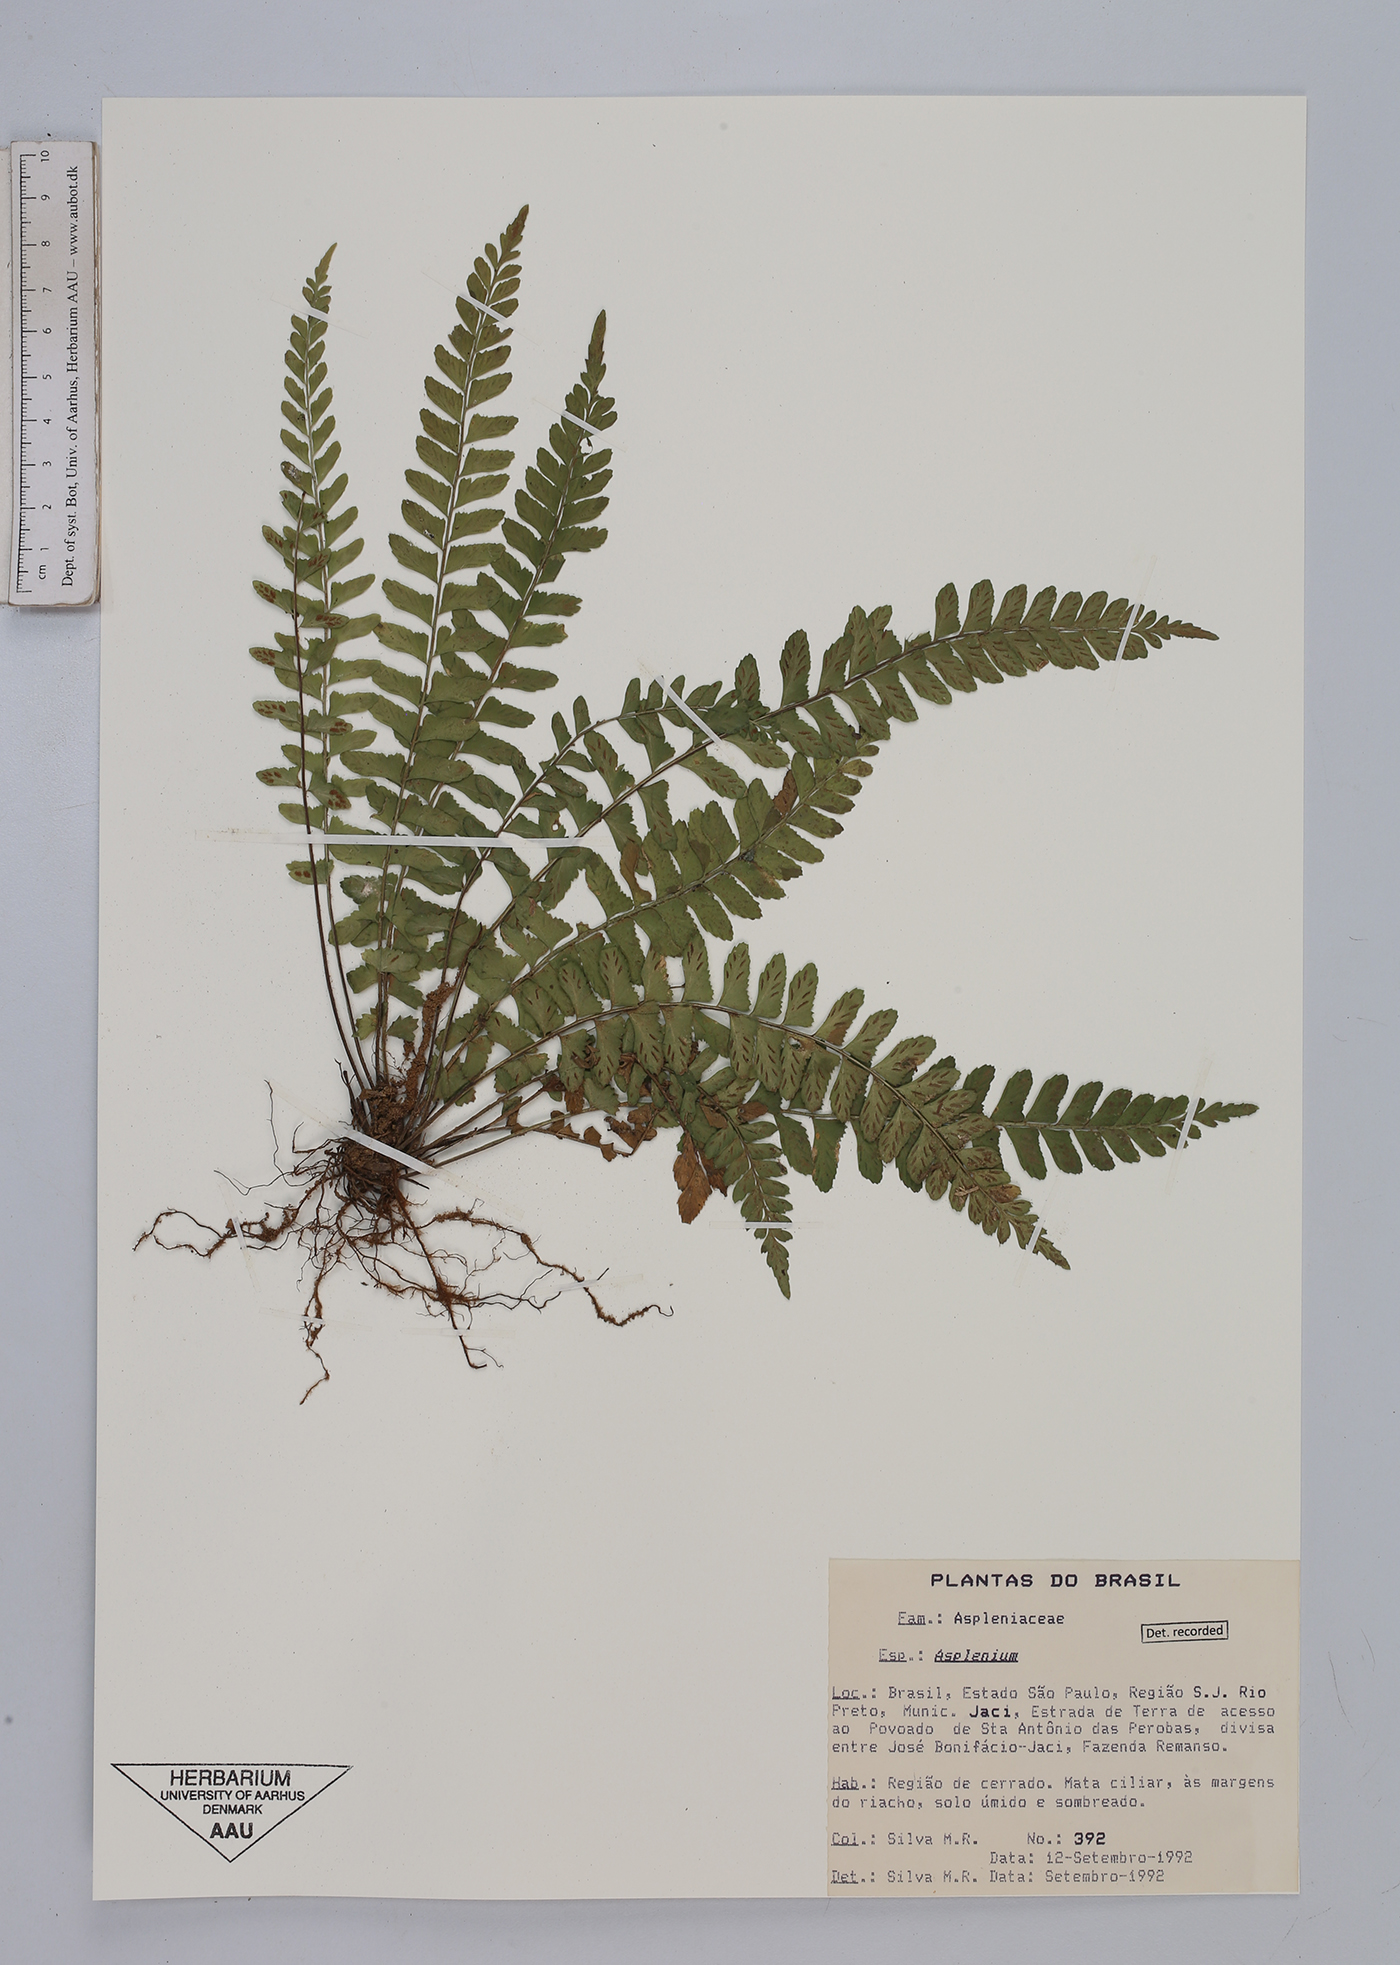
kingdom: Plantae
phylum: Tracheophyta
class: Polypodiopsida
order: Polypodiales
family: Aspleniaceae
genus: Asplenium
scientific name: Asplenium
